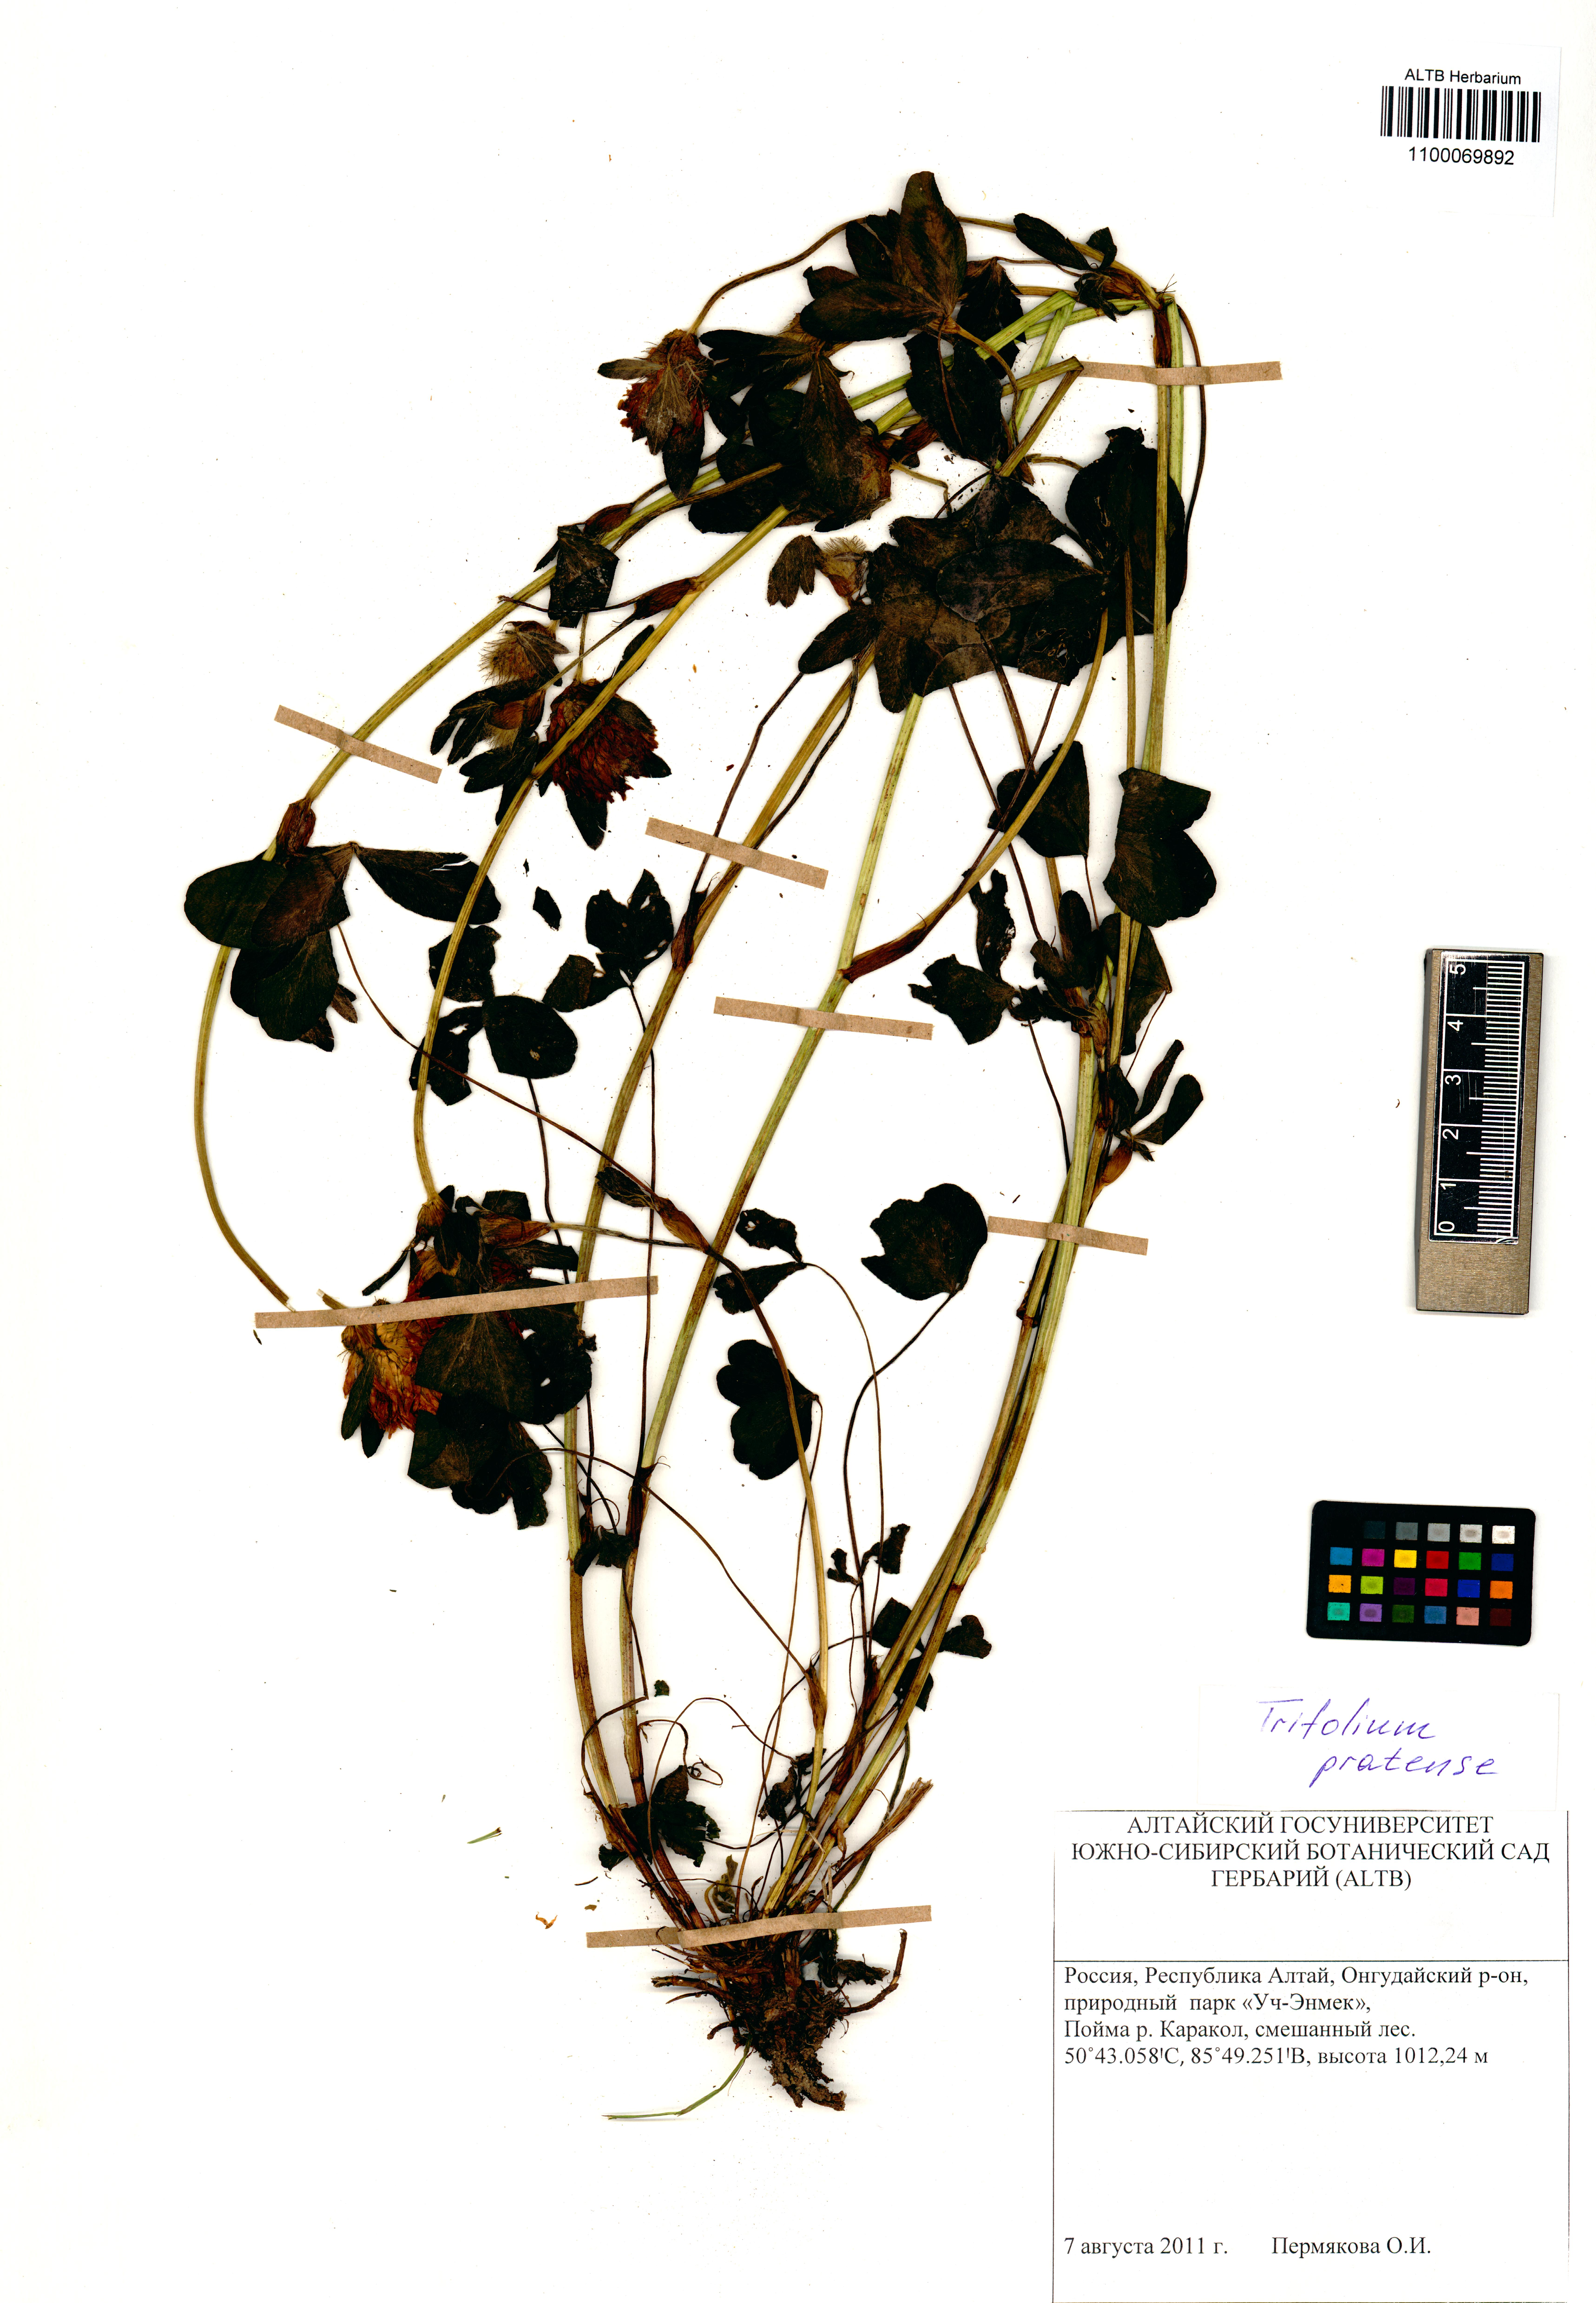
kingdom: Plantae
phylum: Tracheophyta
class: Magnoliopsida
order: Fabales
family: Fabaceae
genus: Trifolium
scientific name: Trifolium pratense
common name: Red clover
